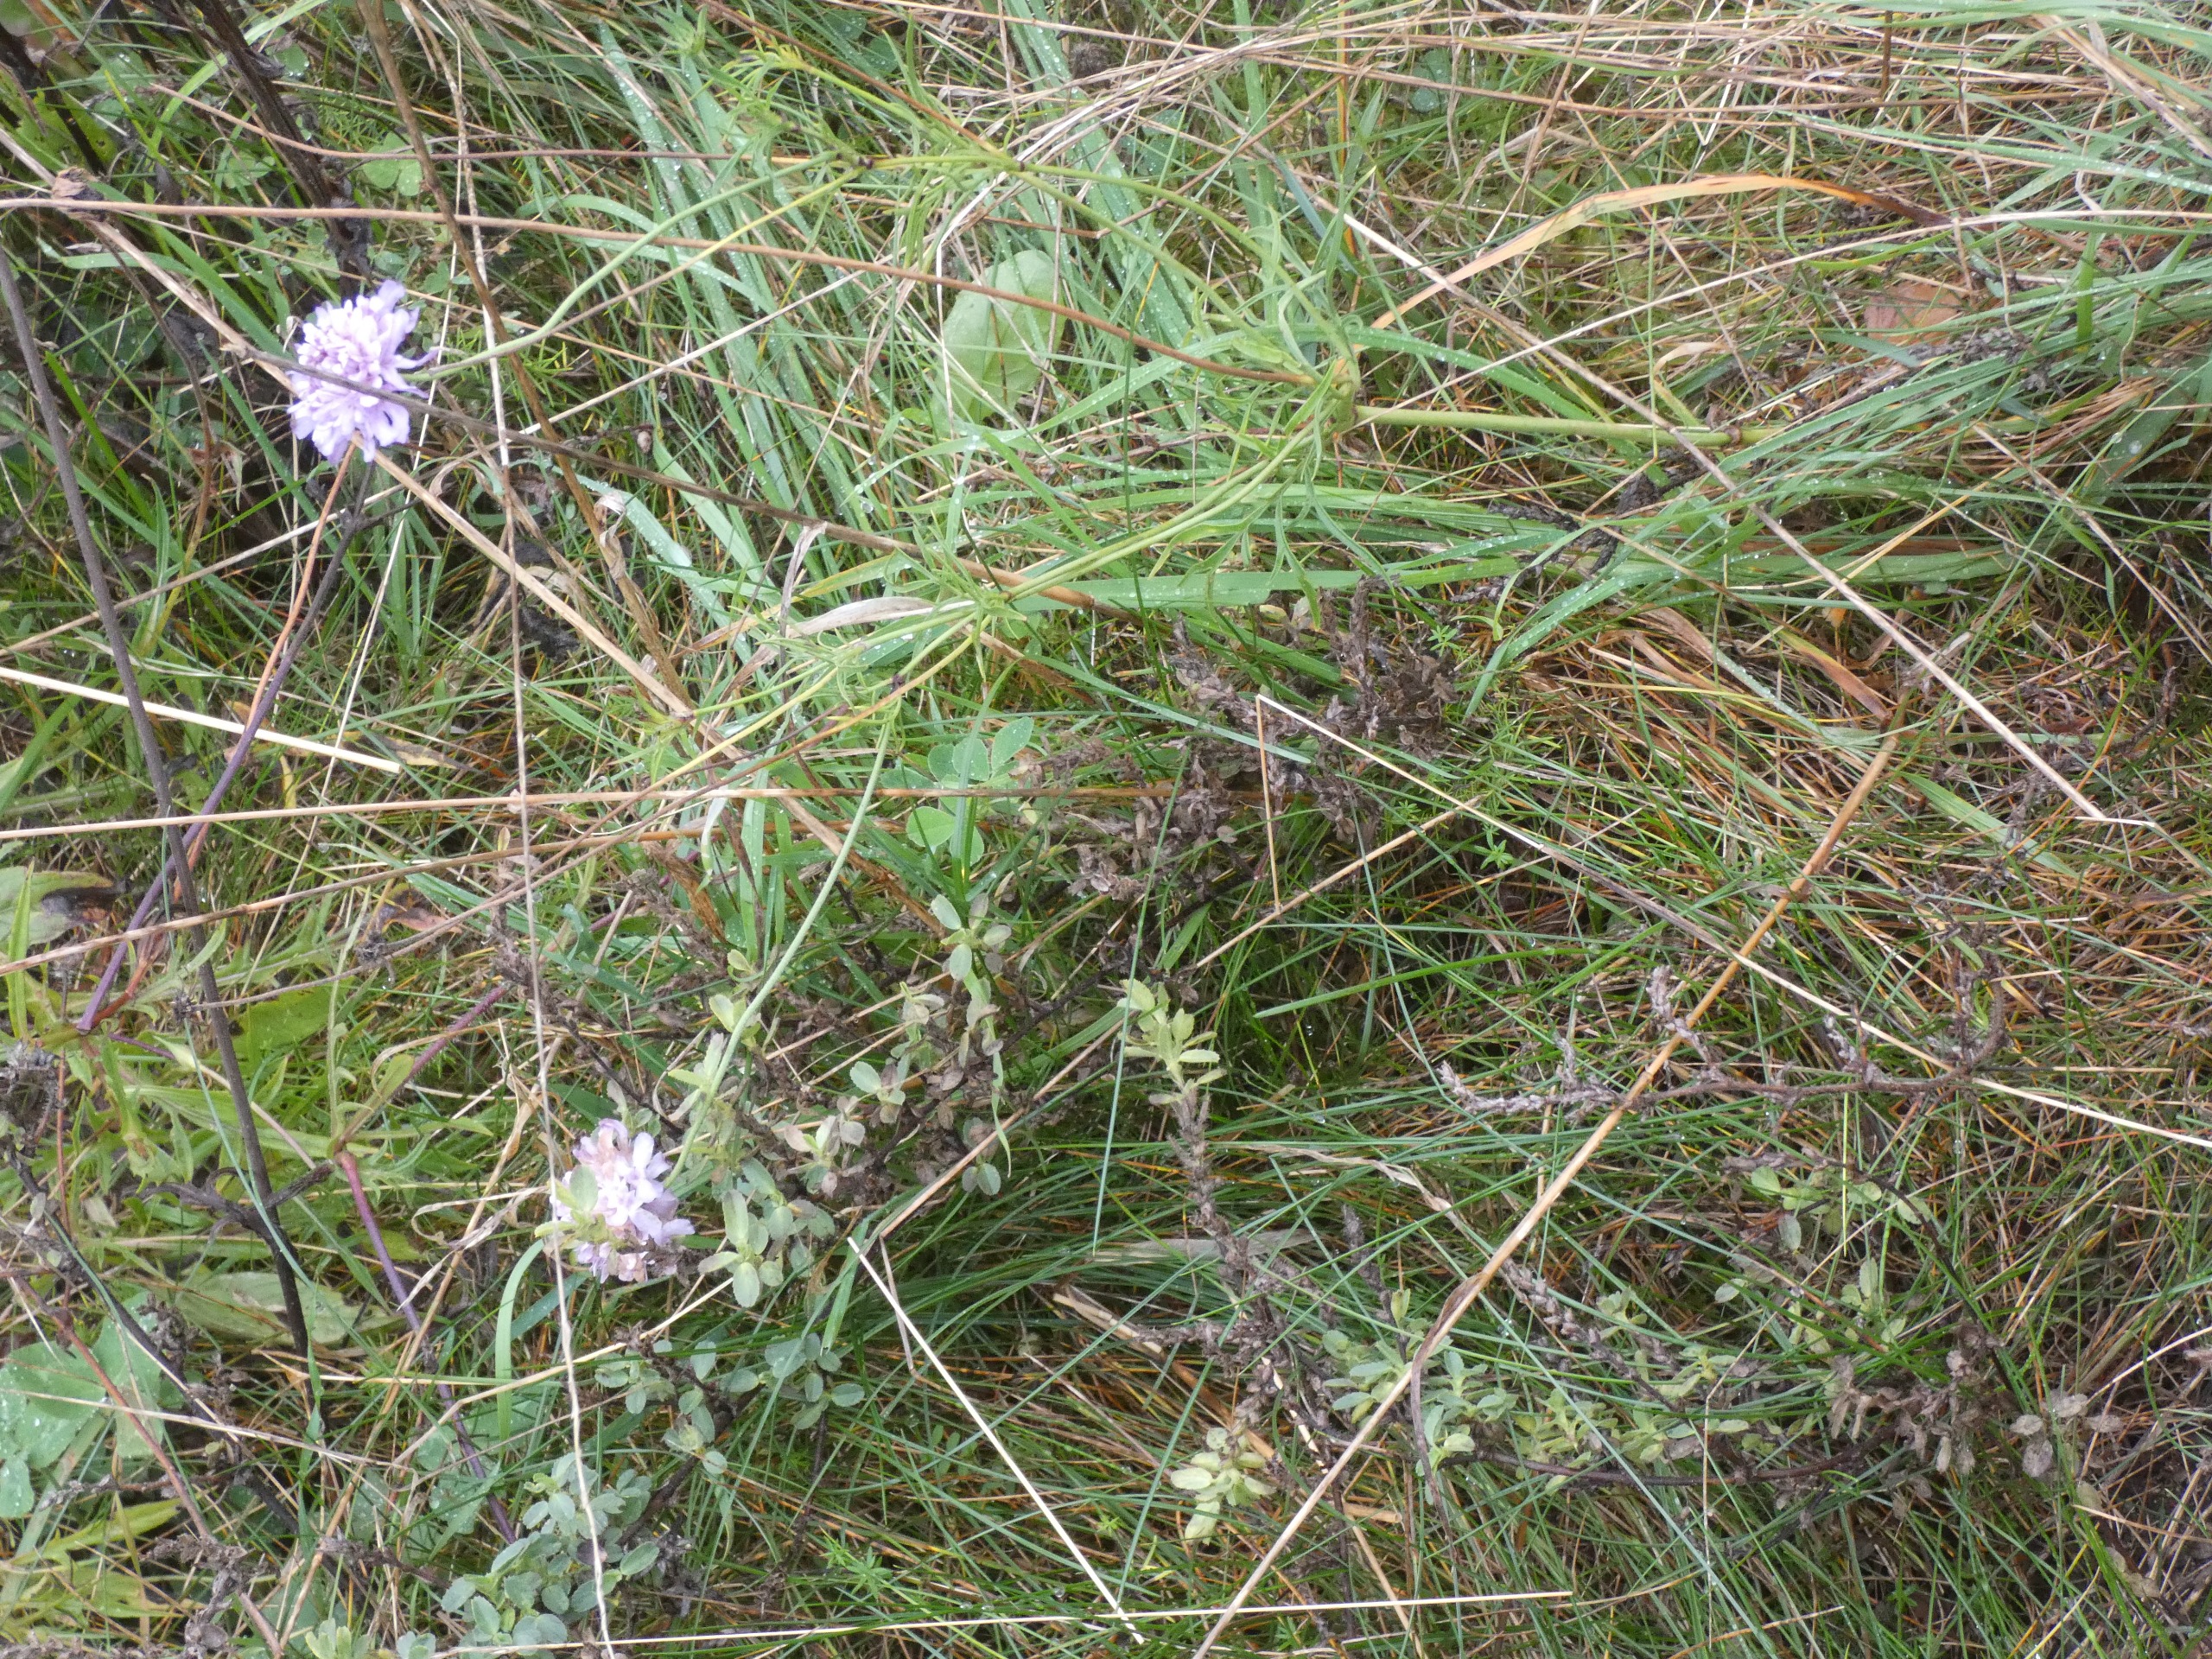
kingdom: Plantae
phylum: Tracheophyta
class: Magnoliopsida
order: Dipsacales
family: Caprifoliaceae
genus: Scabiosa
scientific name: Scabiosa columbaria
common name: Due-skabiose
